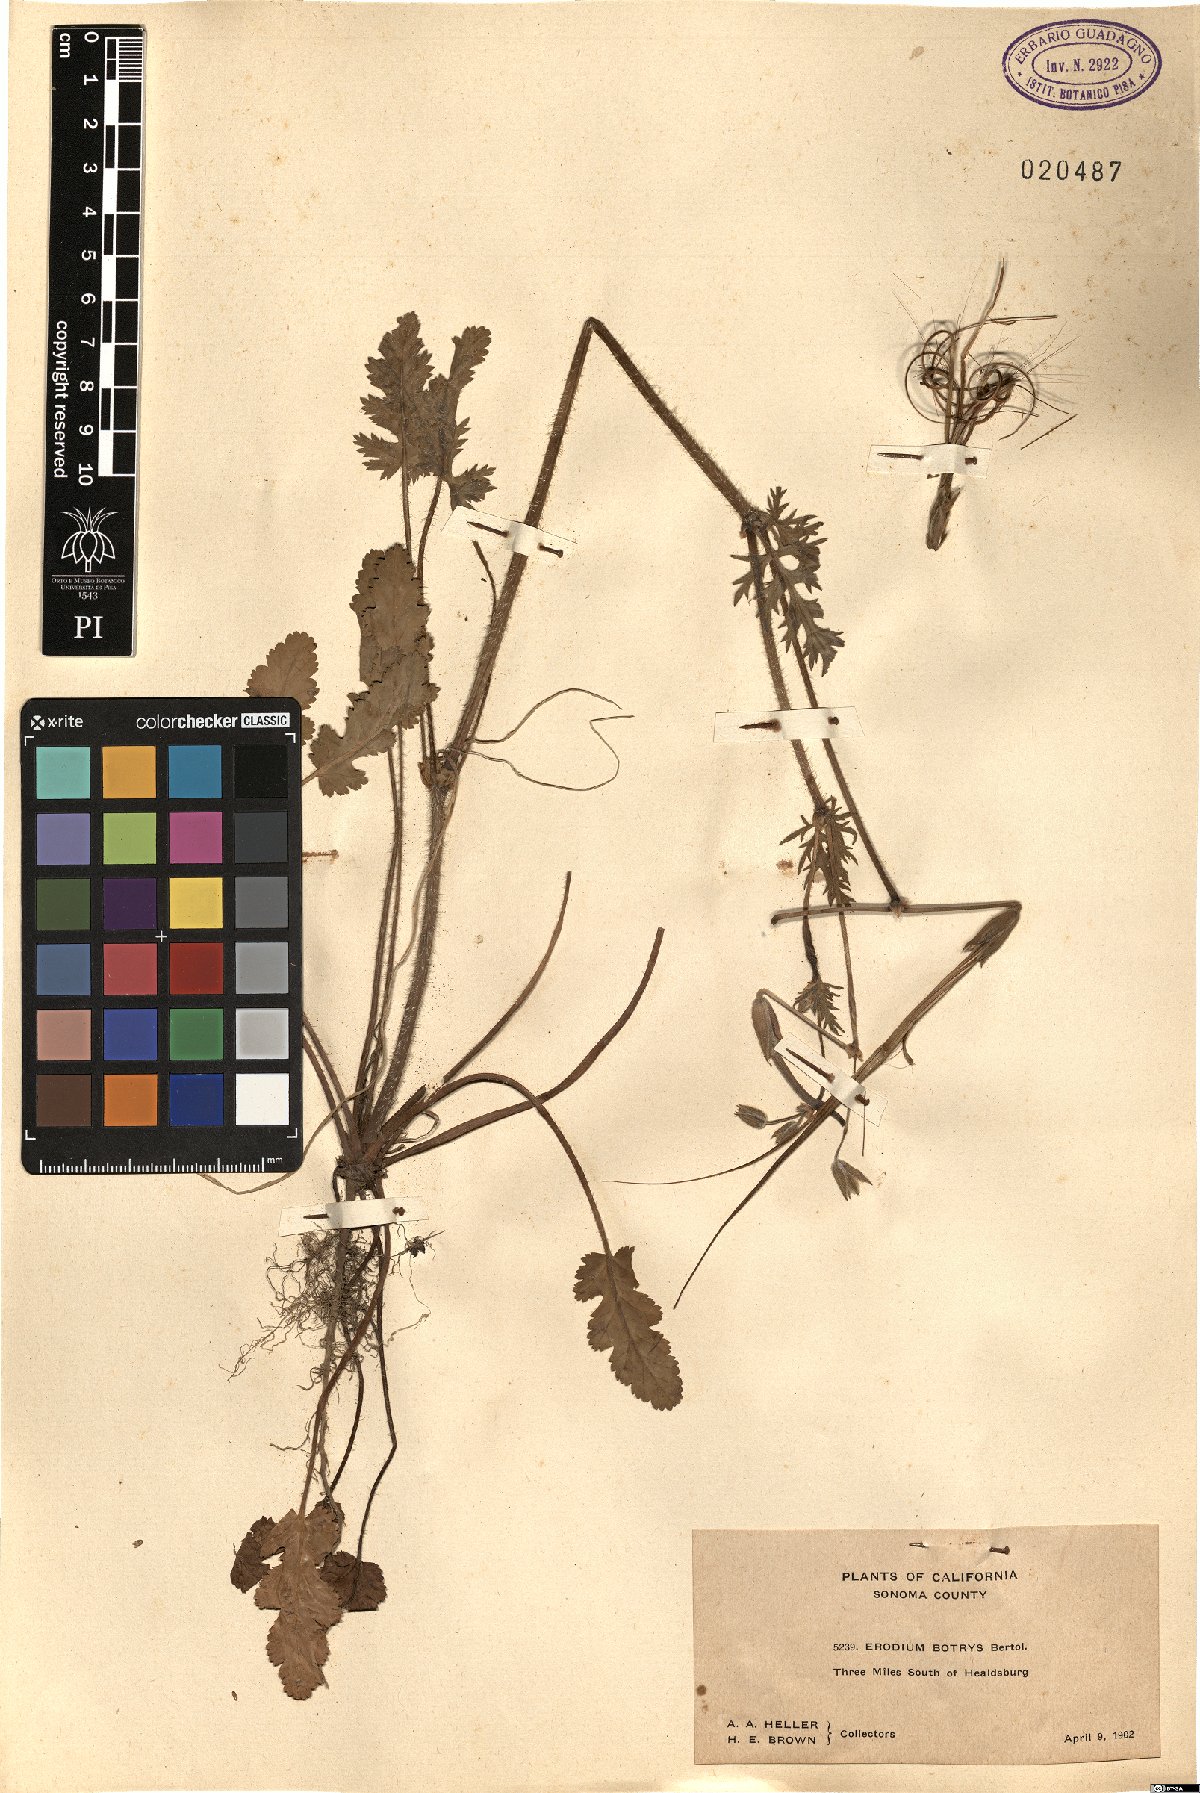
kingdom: Plantae
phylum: Tracheophyta
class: Magnoliopsida
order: Geraniales
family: Geraniaceae
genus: Erodium
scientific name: Erodium botrys
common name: Mediterranean stork's-bill
